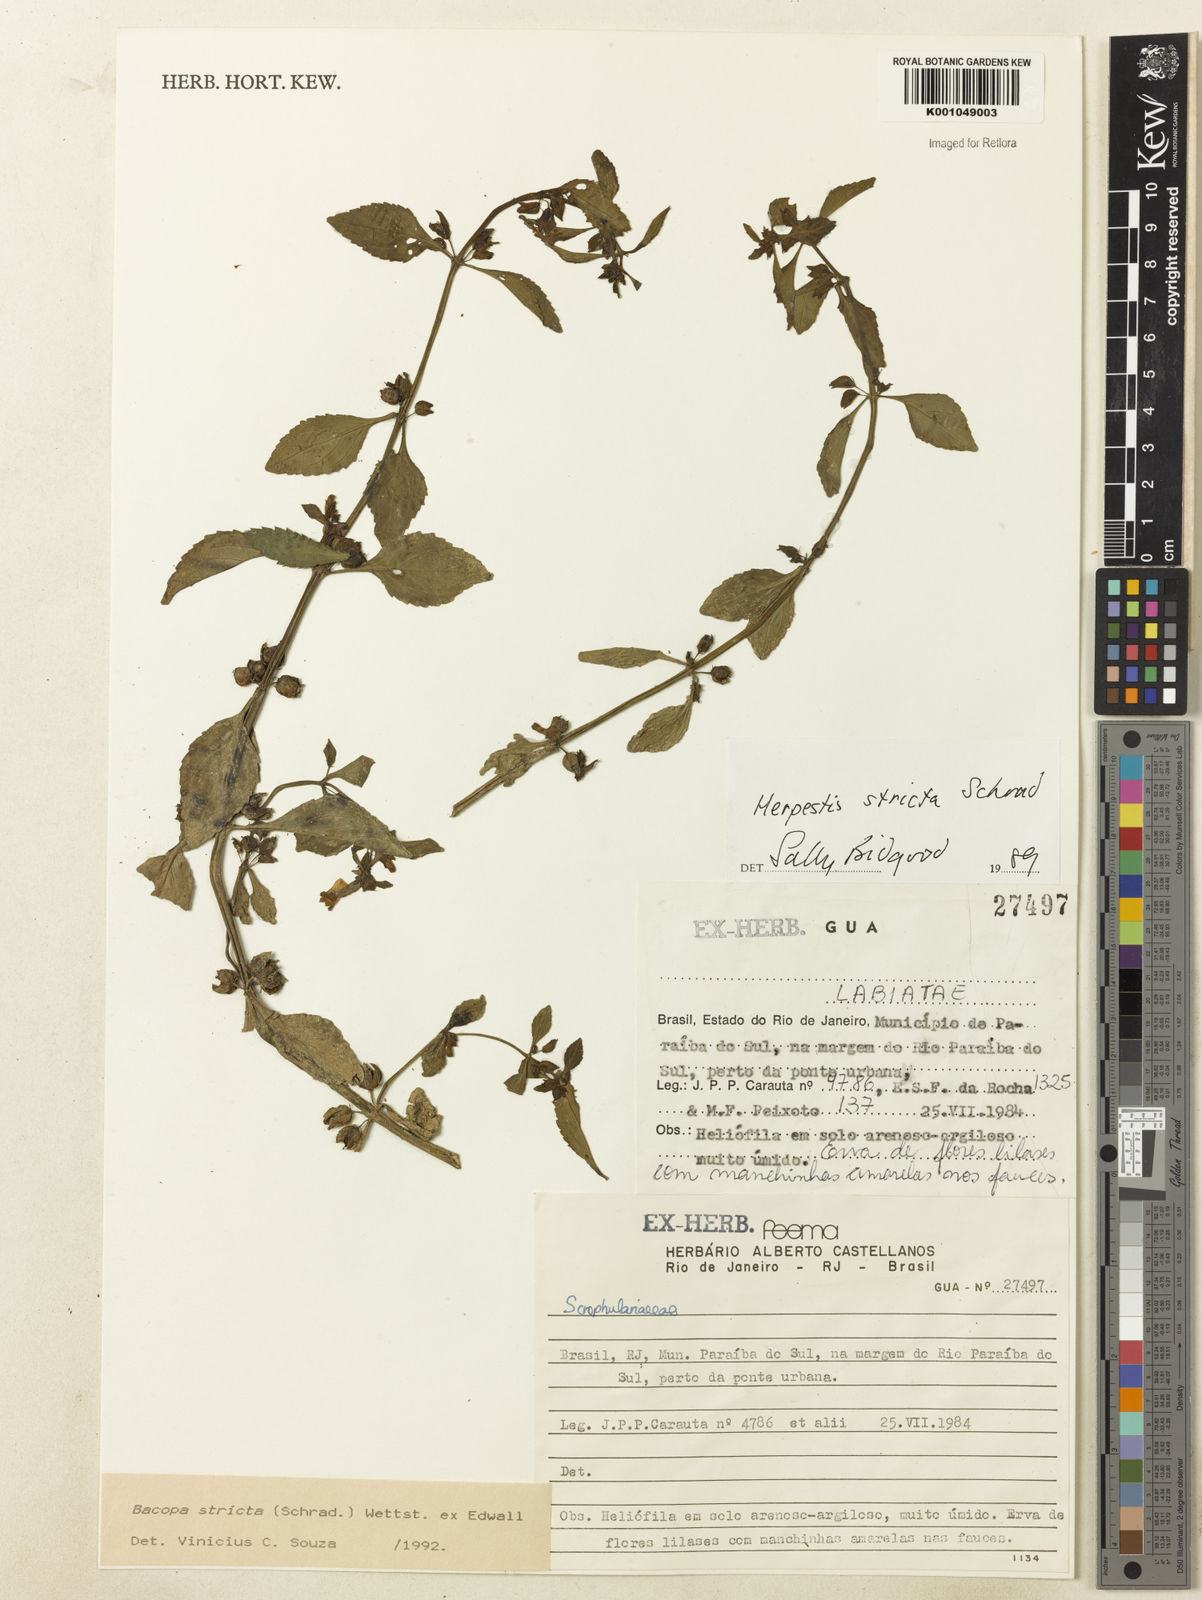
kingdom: Plantae
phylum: Tracheophyta
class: Magnoliopsida
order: Lamiales
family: Plantaginaceae
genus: Bacopa
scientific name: Bacopa stricta
